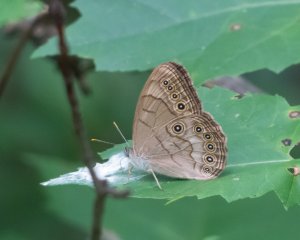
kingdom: Animalia
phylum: Arthropoda
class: Insecta
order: Lepidoptera
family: Nymphalidae
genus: Lethe
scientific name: Lethe anthedon
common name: Northern Pearly-Eye
